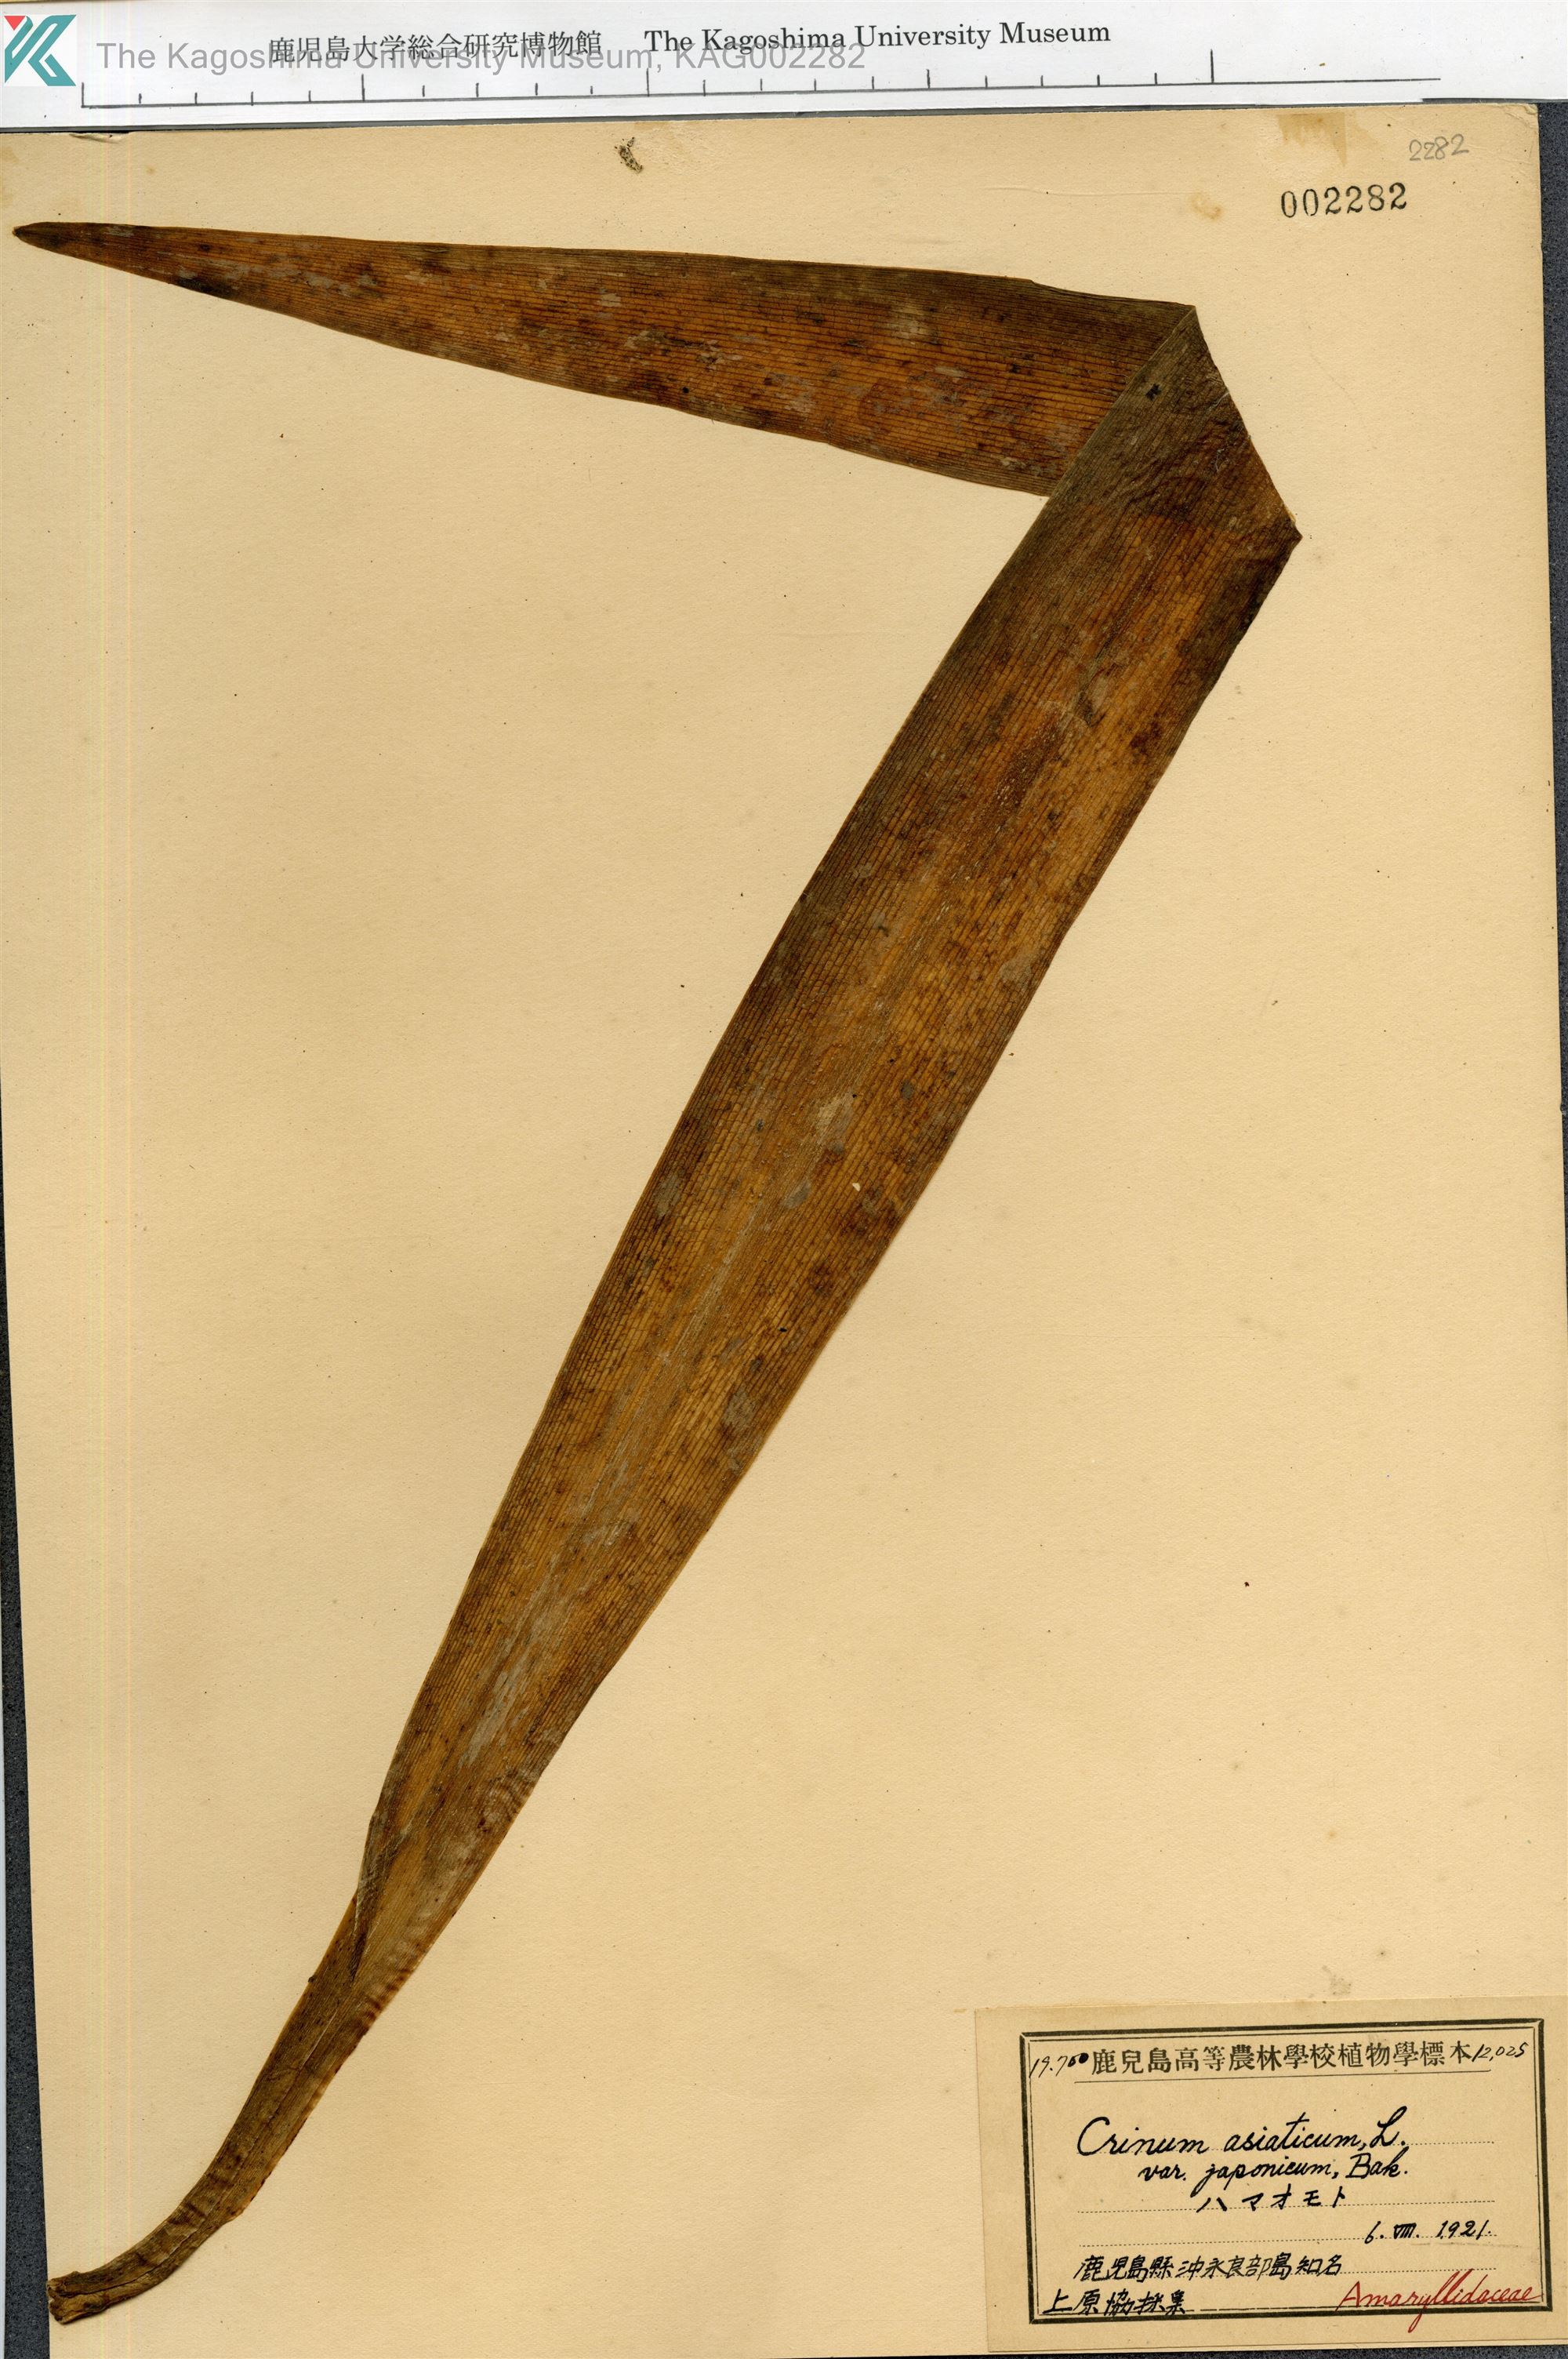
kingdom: Plantae
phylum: Tracheophyta
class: Liliopsida
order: Asparagales
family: Amaryllidaceae
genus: Crinum
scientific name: Crinum asiaticum
